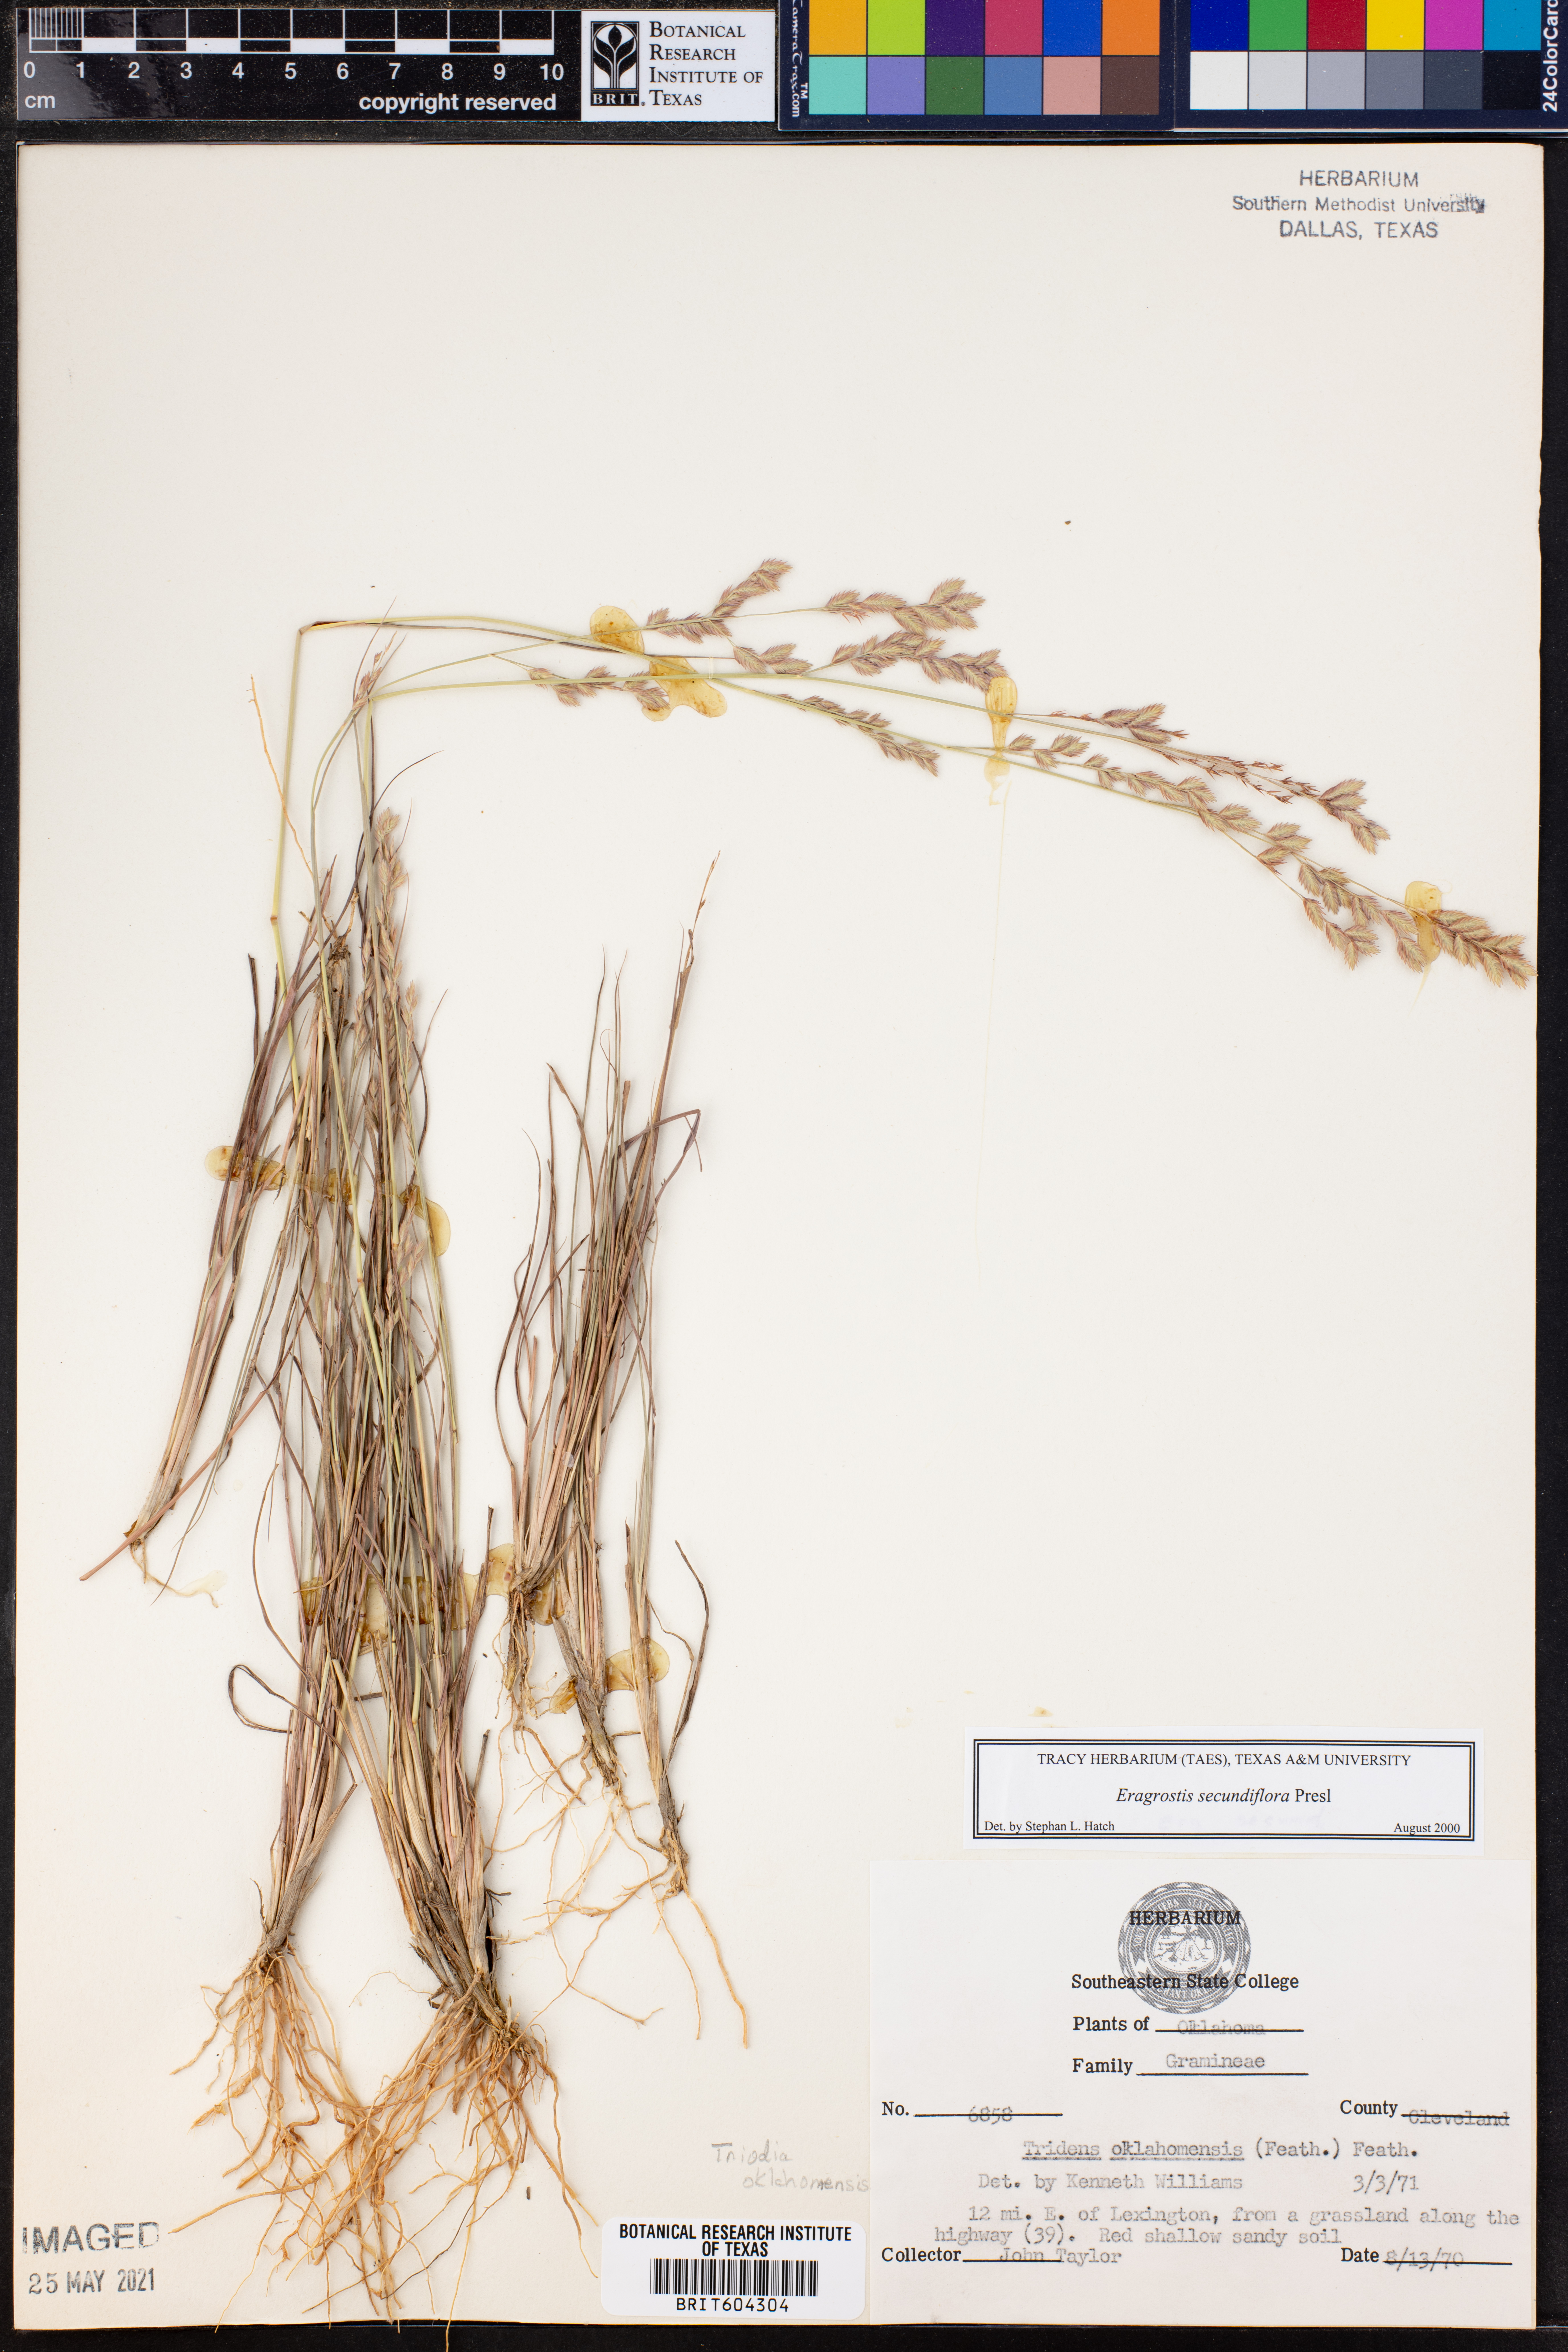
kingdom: Plantae
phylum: Tracheophyta
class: Liliopsida
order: Poales
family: Poaceae
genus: Eragrostis
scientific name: Eragrostis secundiflora
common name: Red love grass
